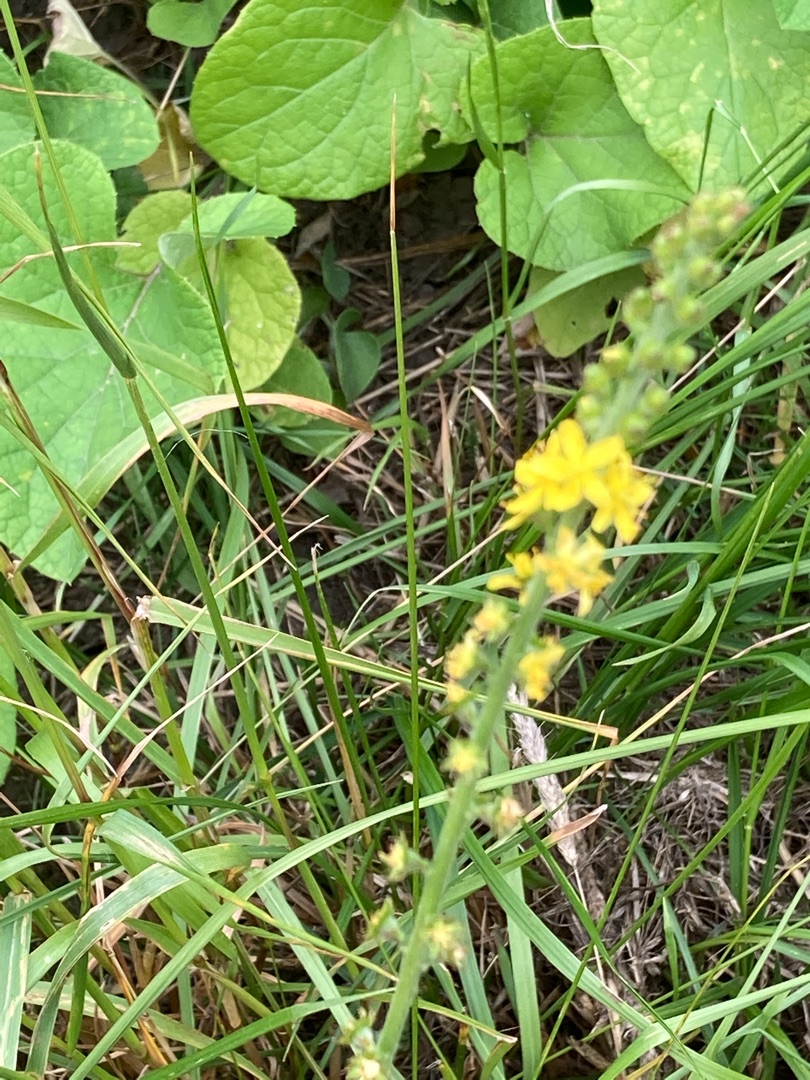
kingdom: Plantae
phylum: Tracheophyta
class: Magnoliopsida
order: Rosales
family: Rosaceae
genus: Agrimonia
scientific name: Agrimonia eupatoria
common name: Almindelig agermåne
